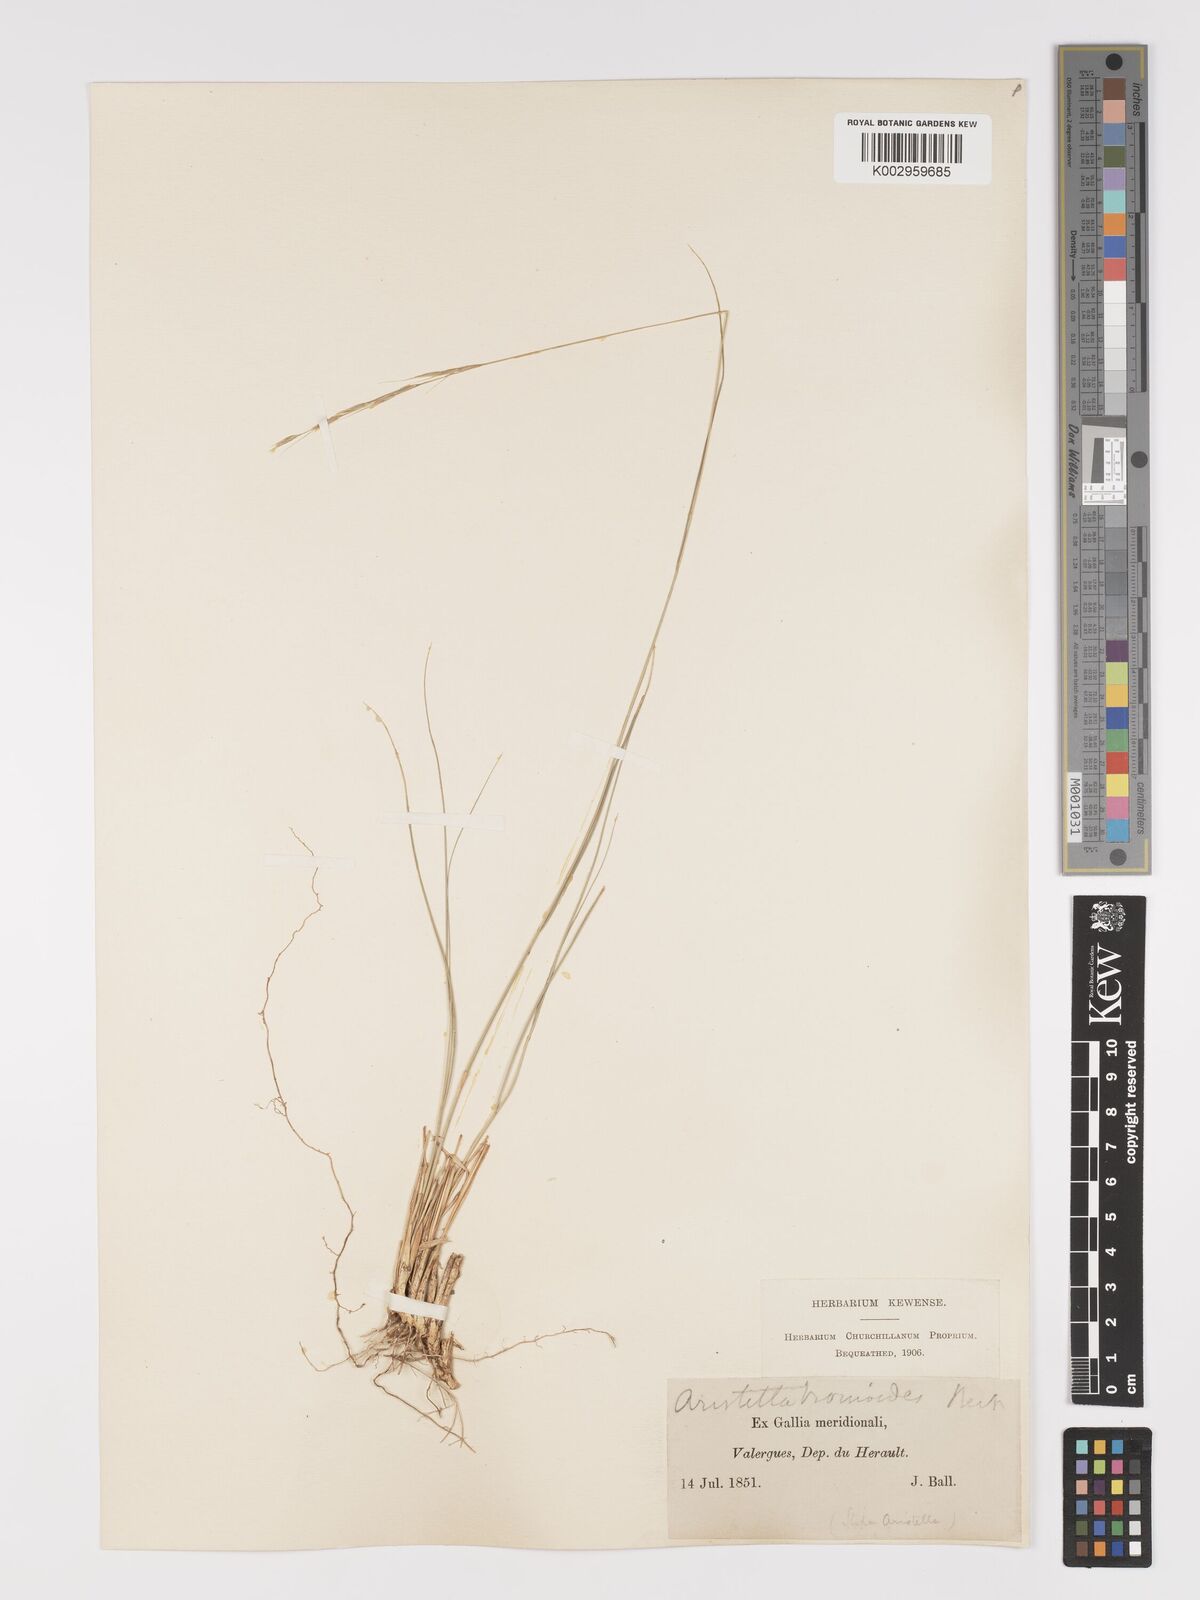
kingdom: Plantae
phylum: Tracheophyta
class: Liliopsida
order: Poales
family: Poaceae
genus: Achnatherum
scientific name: Achnatherum bromoides
